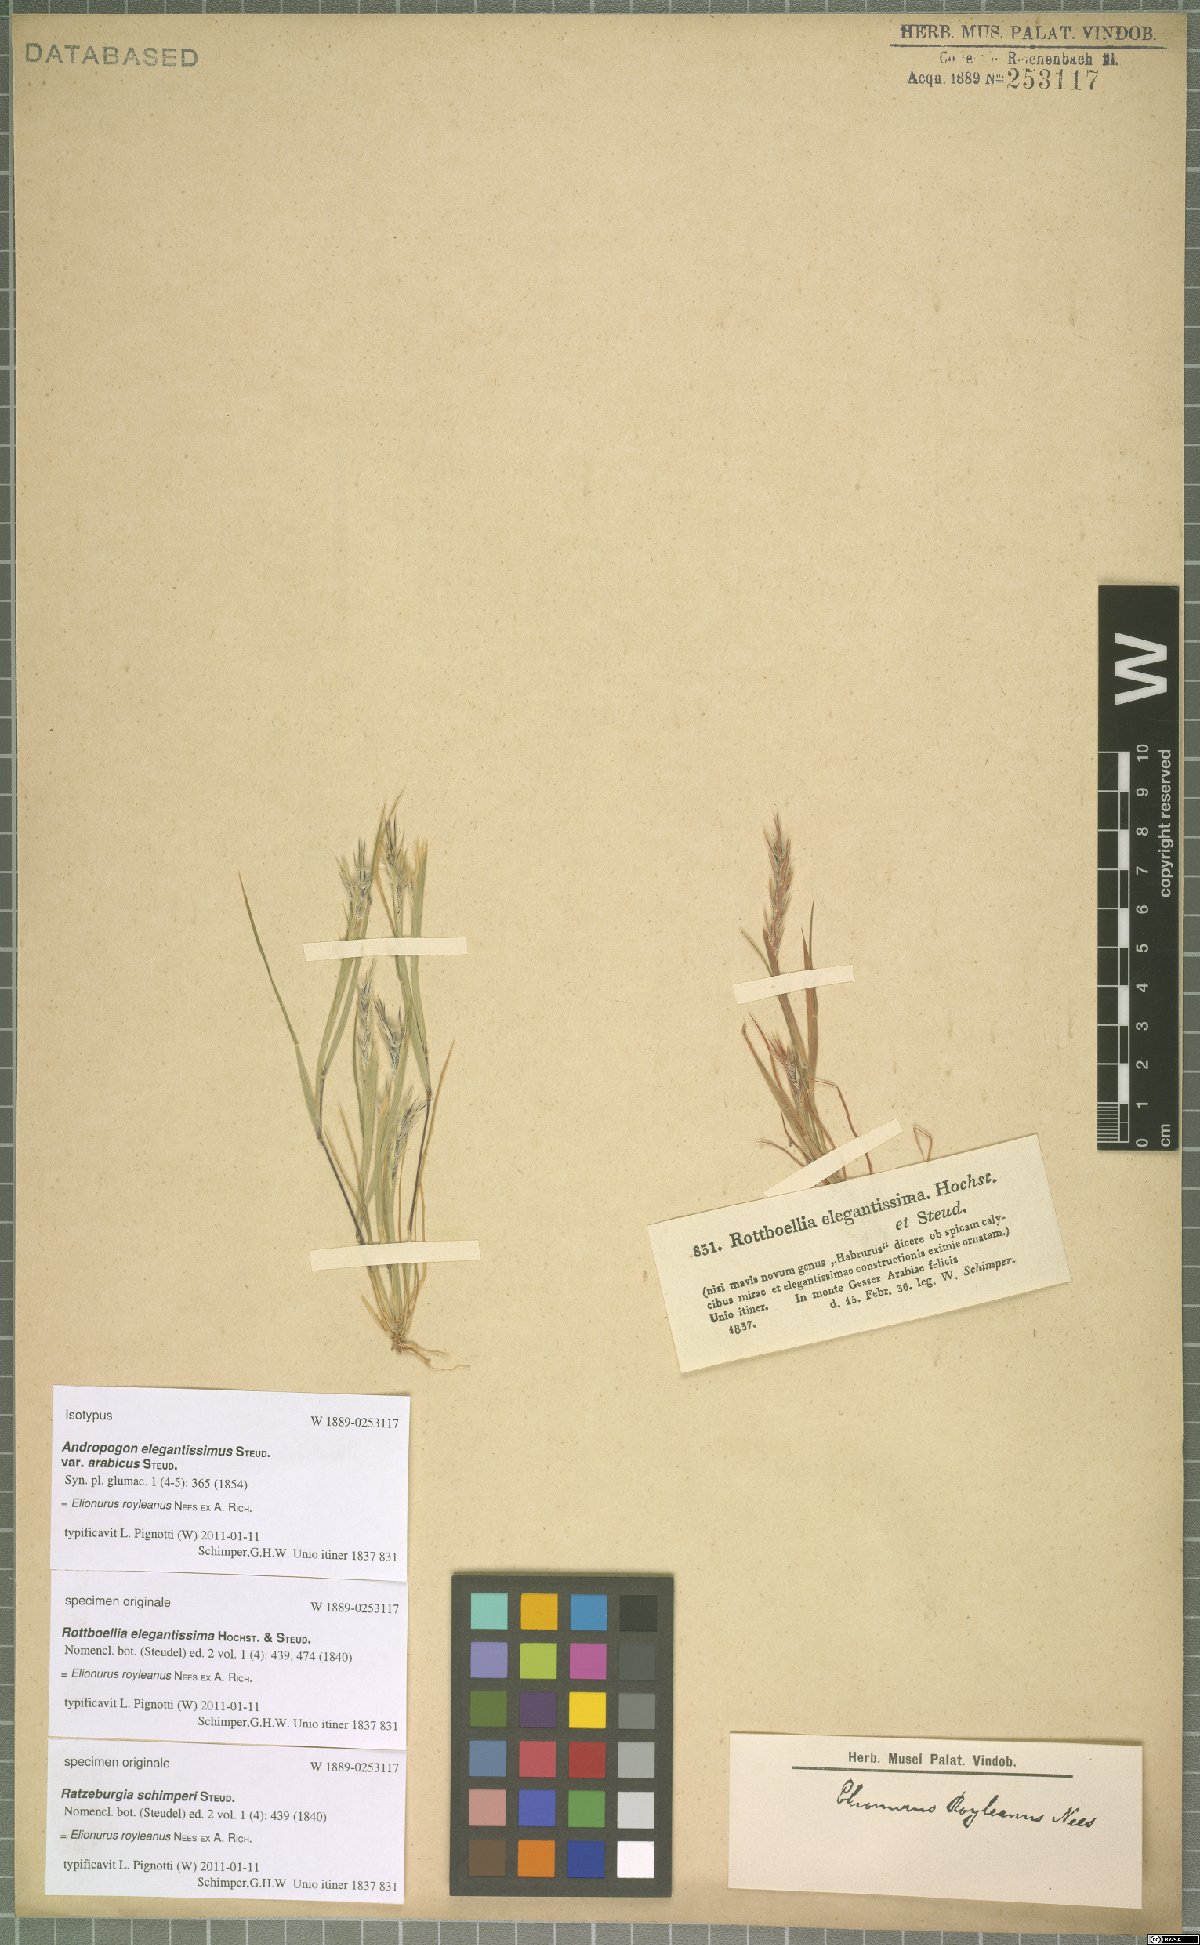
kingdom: Plantae
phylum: Tracheophyta
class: Liliopsida
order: Poales
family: Poaceae
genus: Elionurus
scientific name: Elionurus royleanus
